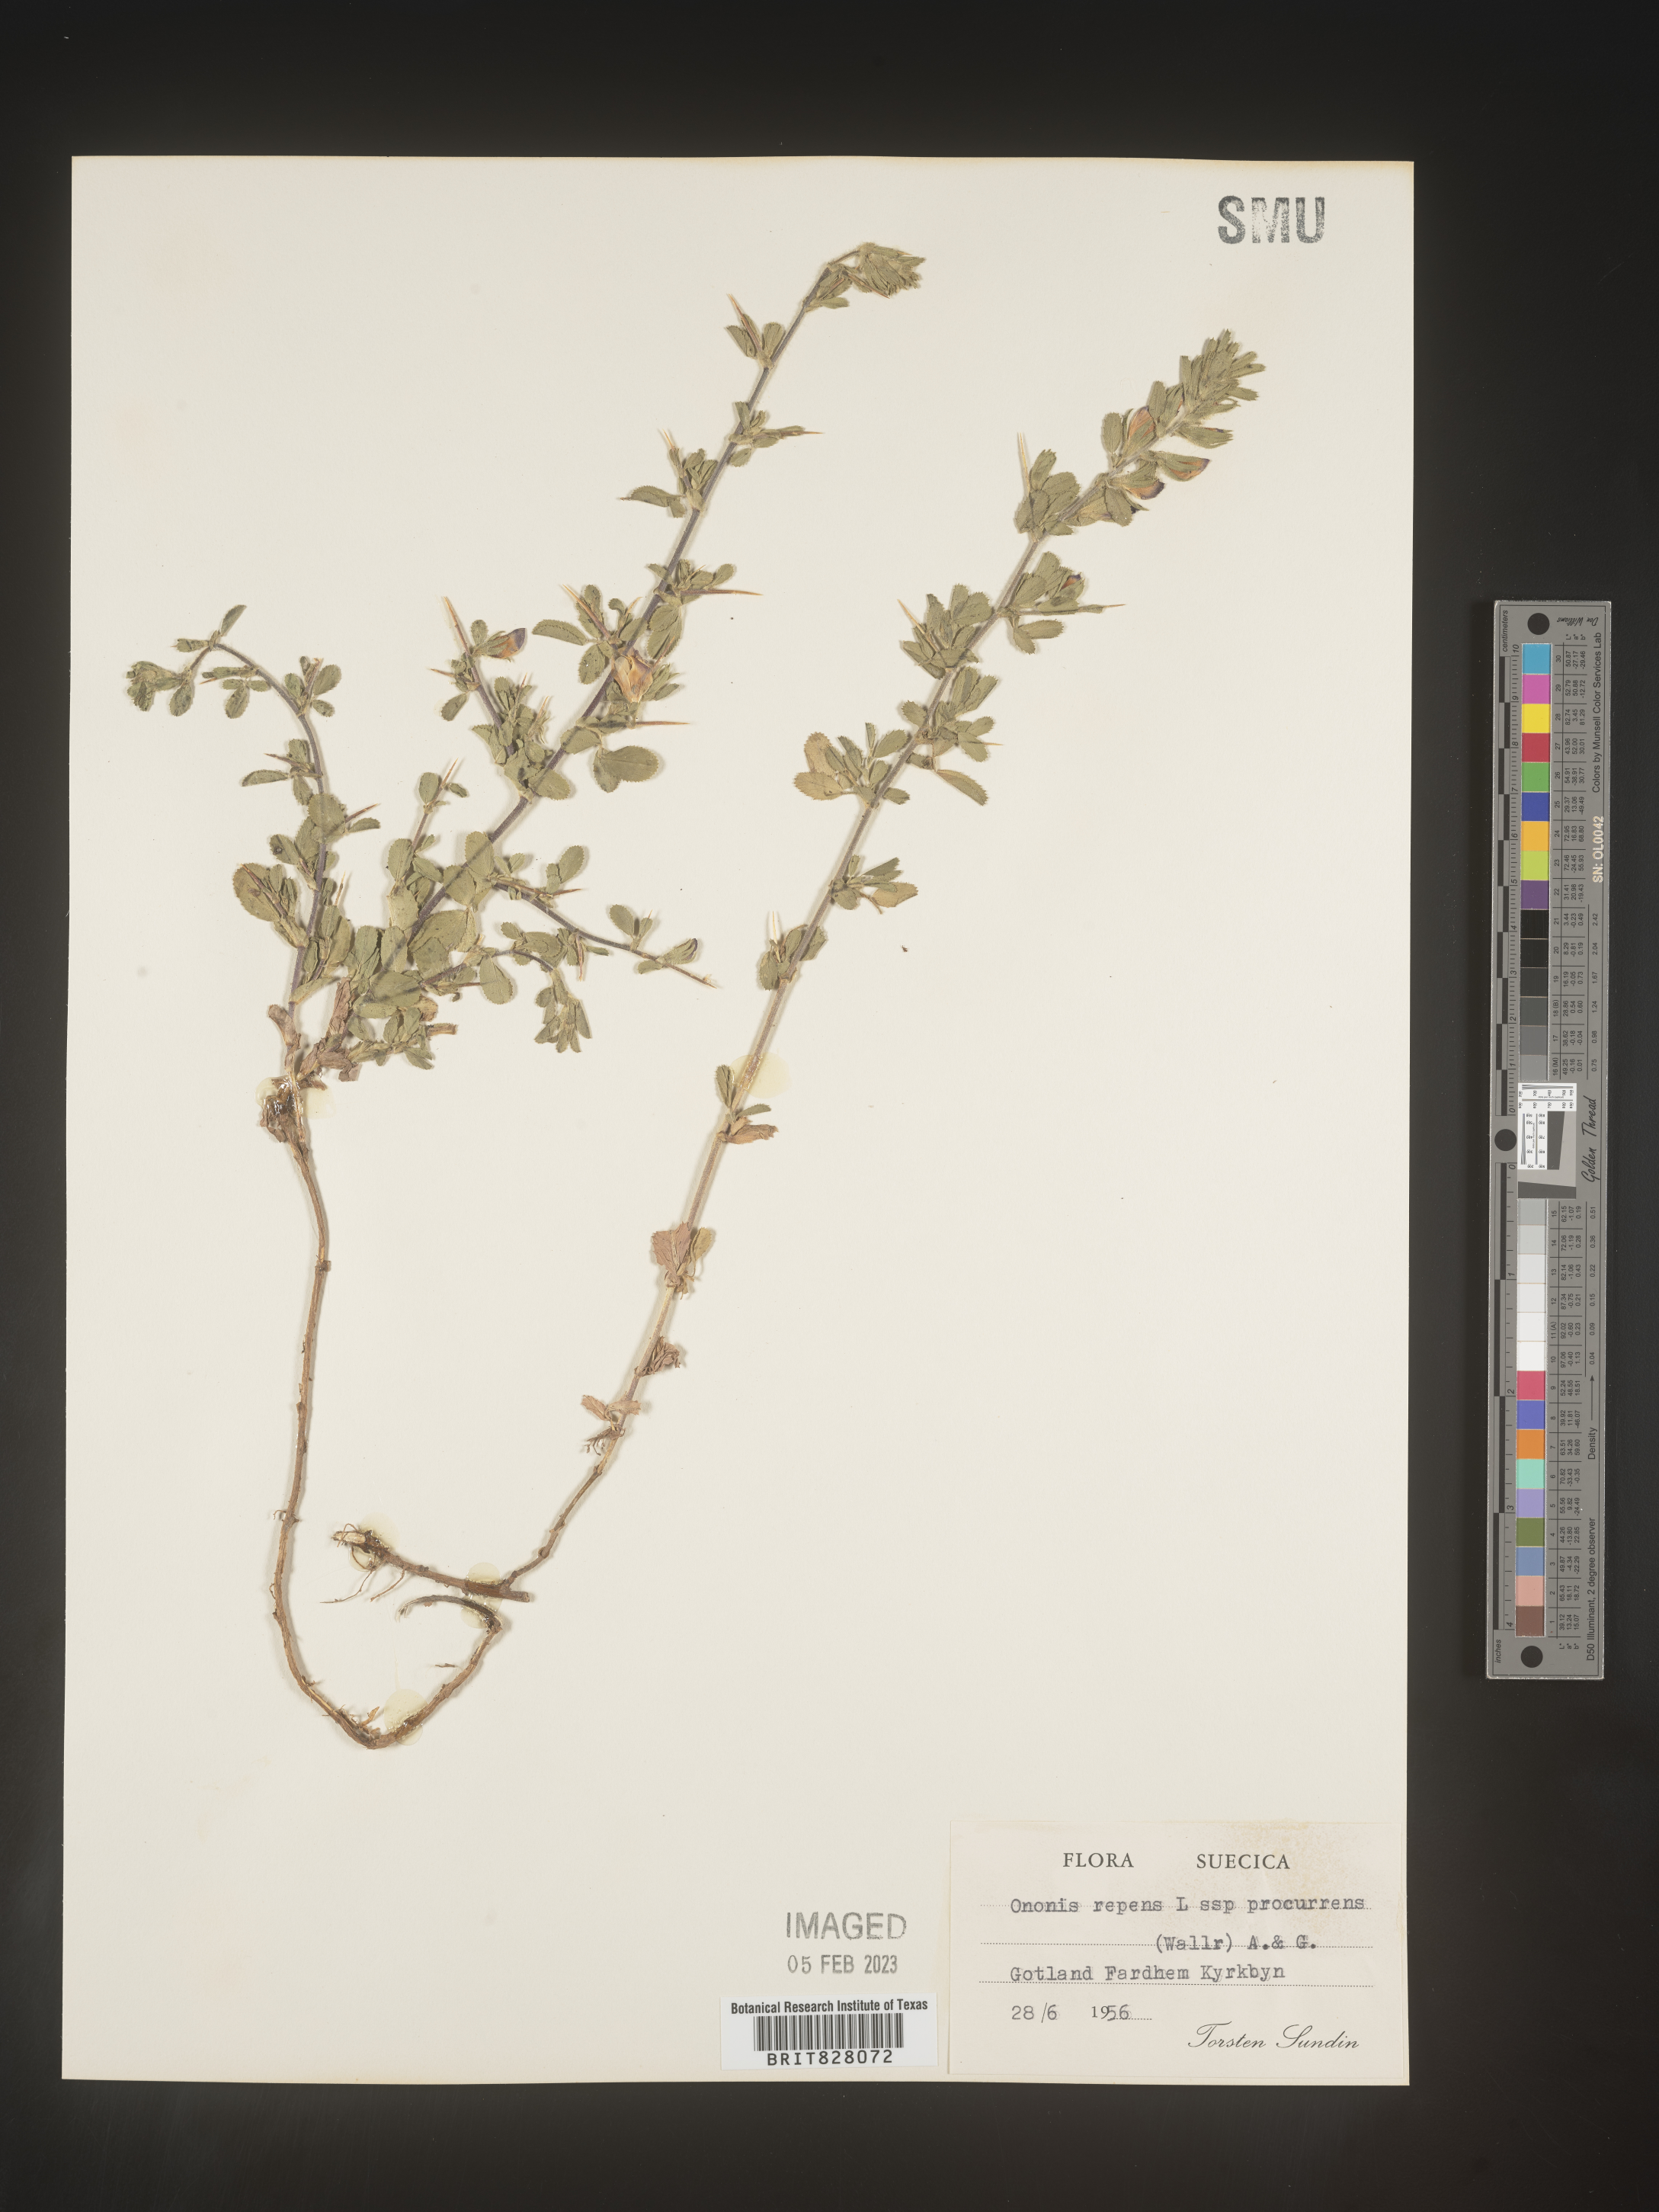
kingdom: Plantae
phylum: Tracheophyta
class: Magnoliopsida
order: Fabales
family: Fabaceae
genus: Ononis
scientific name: Ononis
